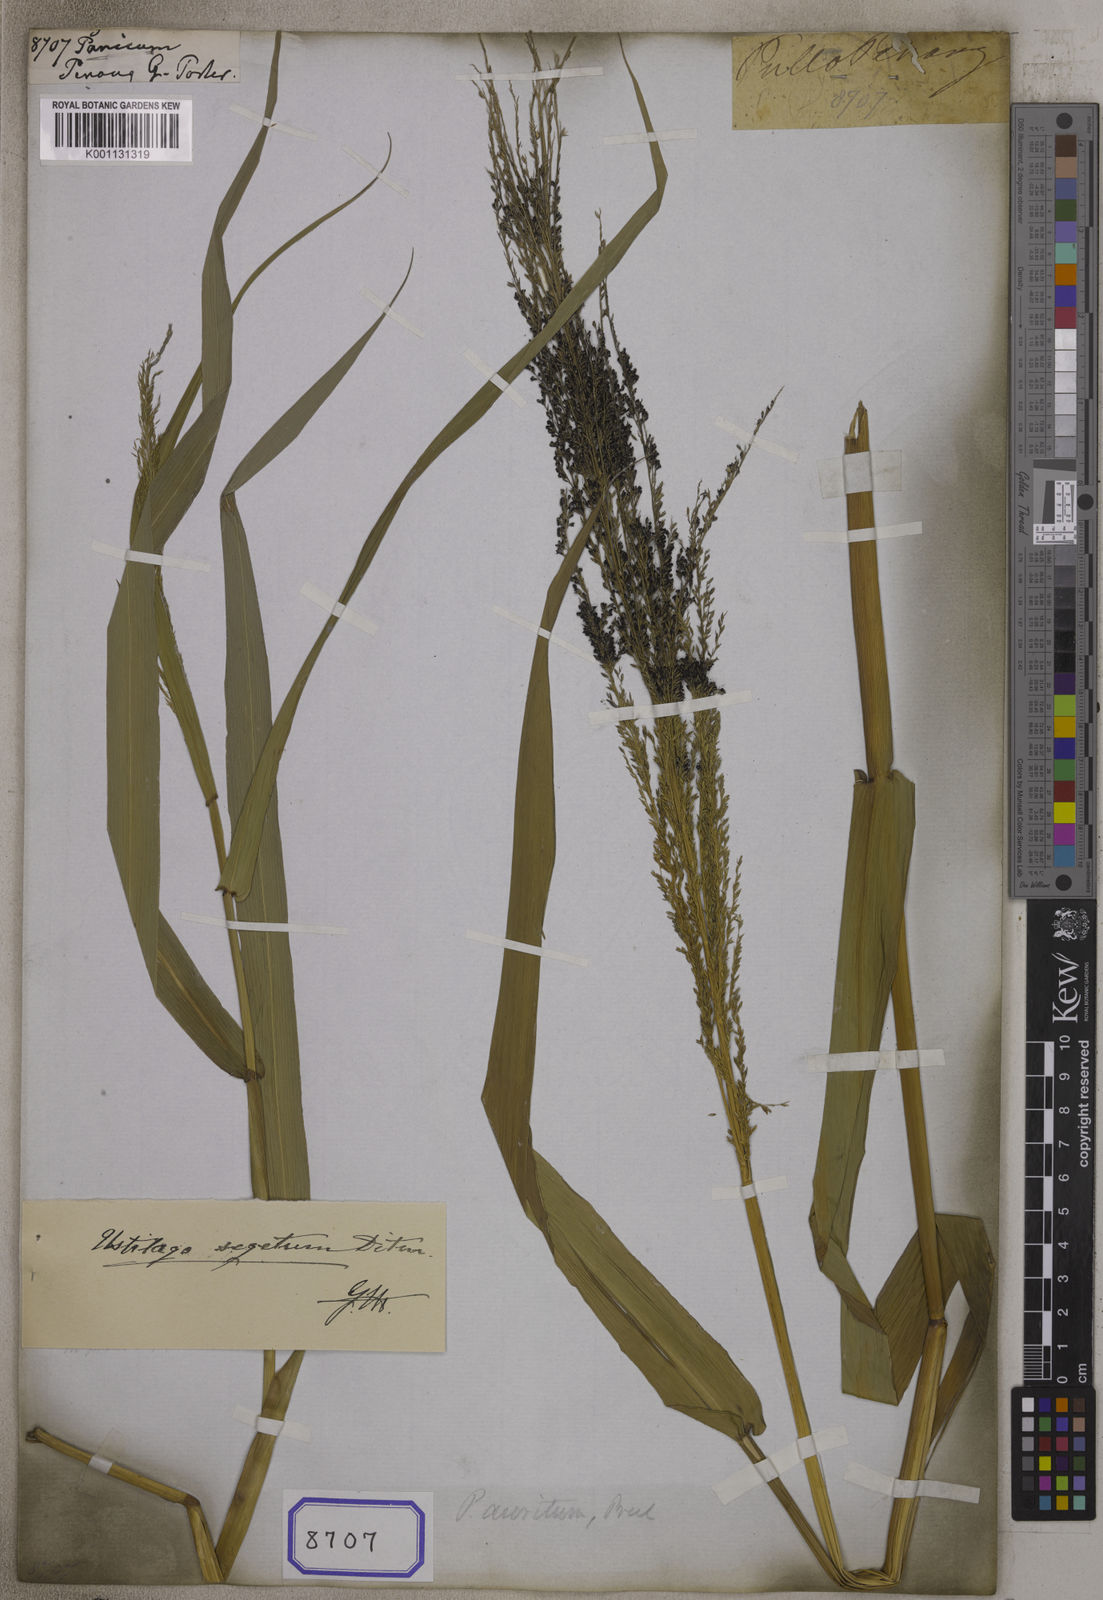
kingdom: Plantae
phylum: Tracheophyta
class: Liliopsida
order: Poales
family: Poaceae
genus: Panicum
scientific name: Panicum
